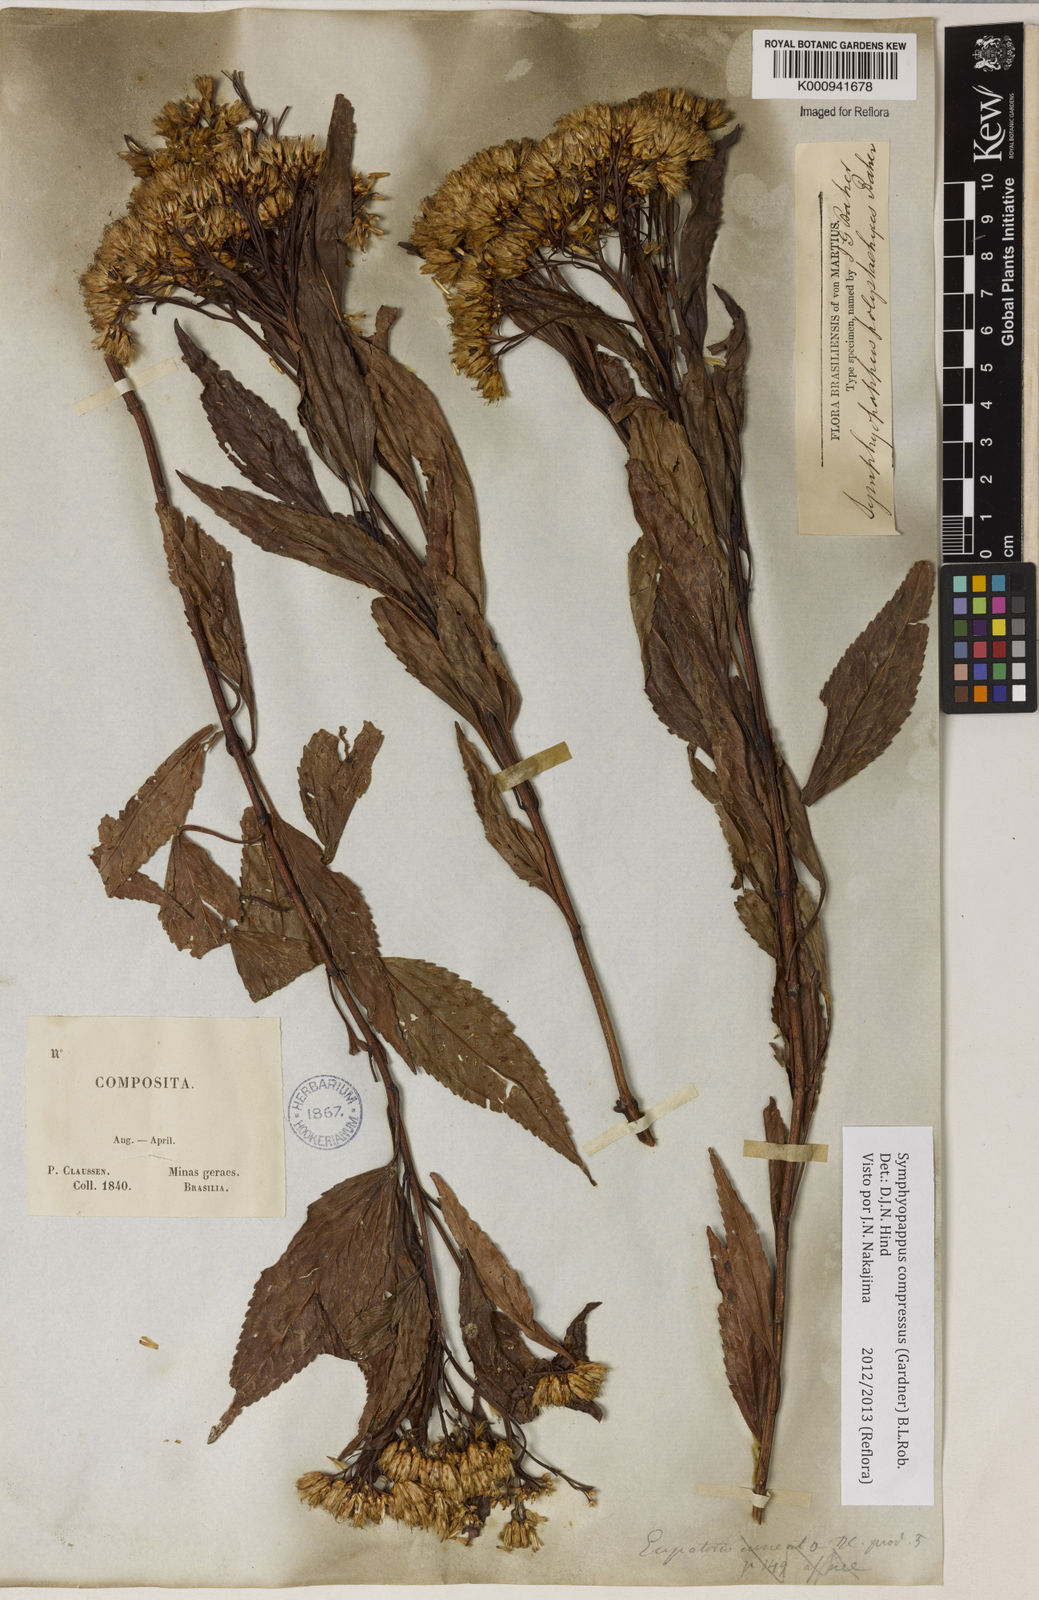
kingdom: Plantae
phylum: Tracheophyta
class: Magnoliopsida
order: Asterales
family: Asteraceae
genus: Symphyopappus
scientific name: Symphyopappus compressus
